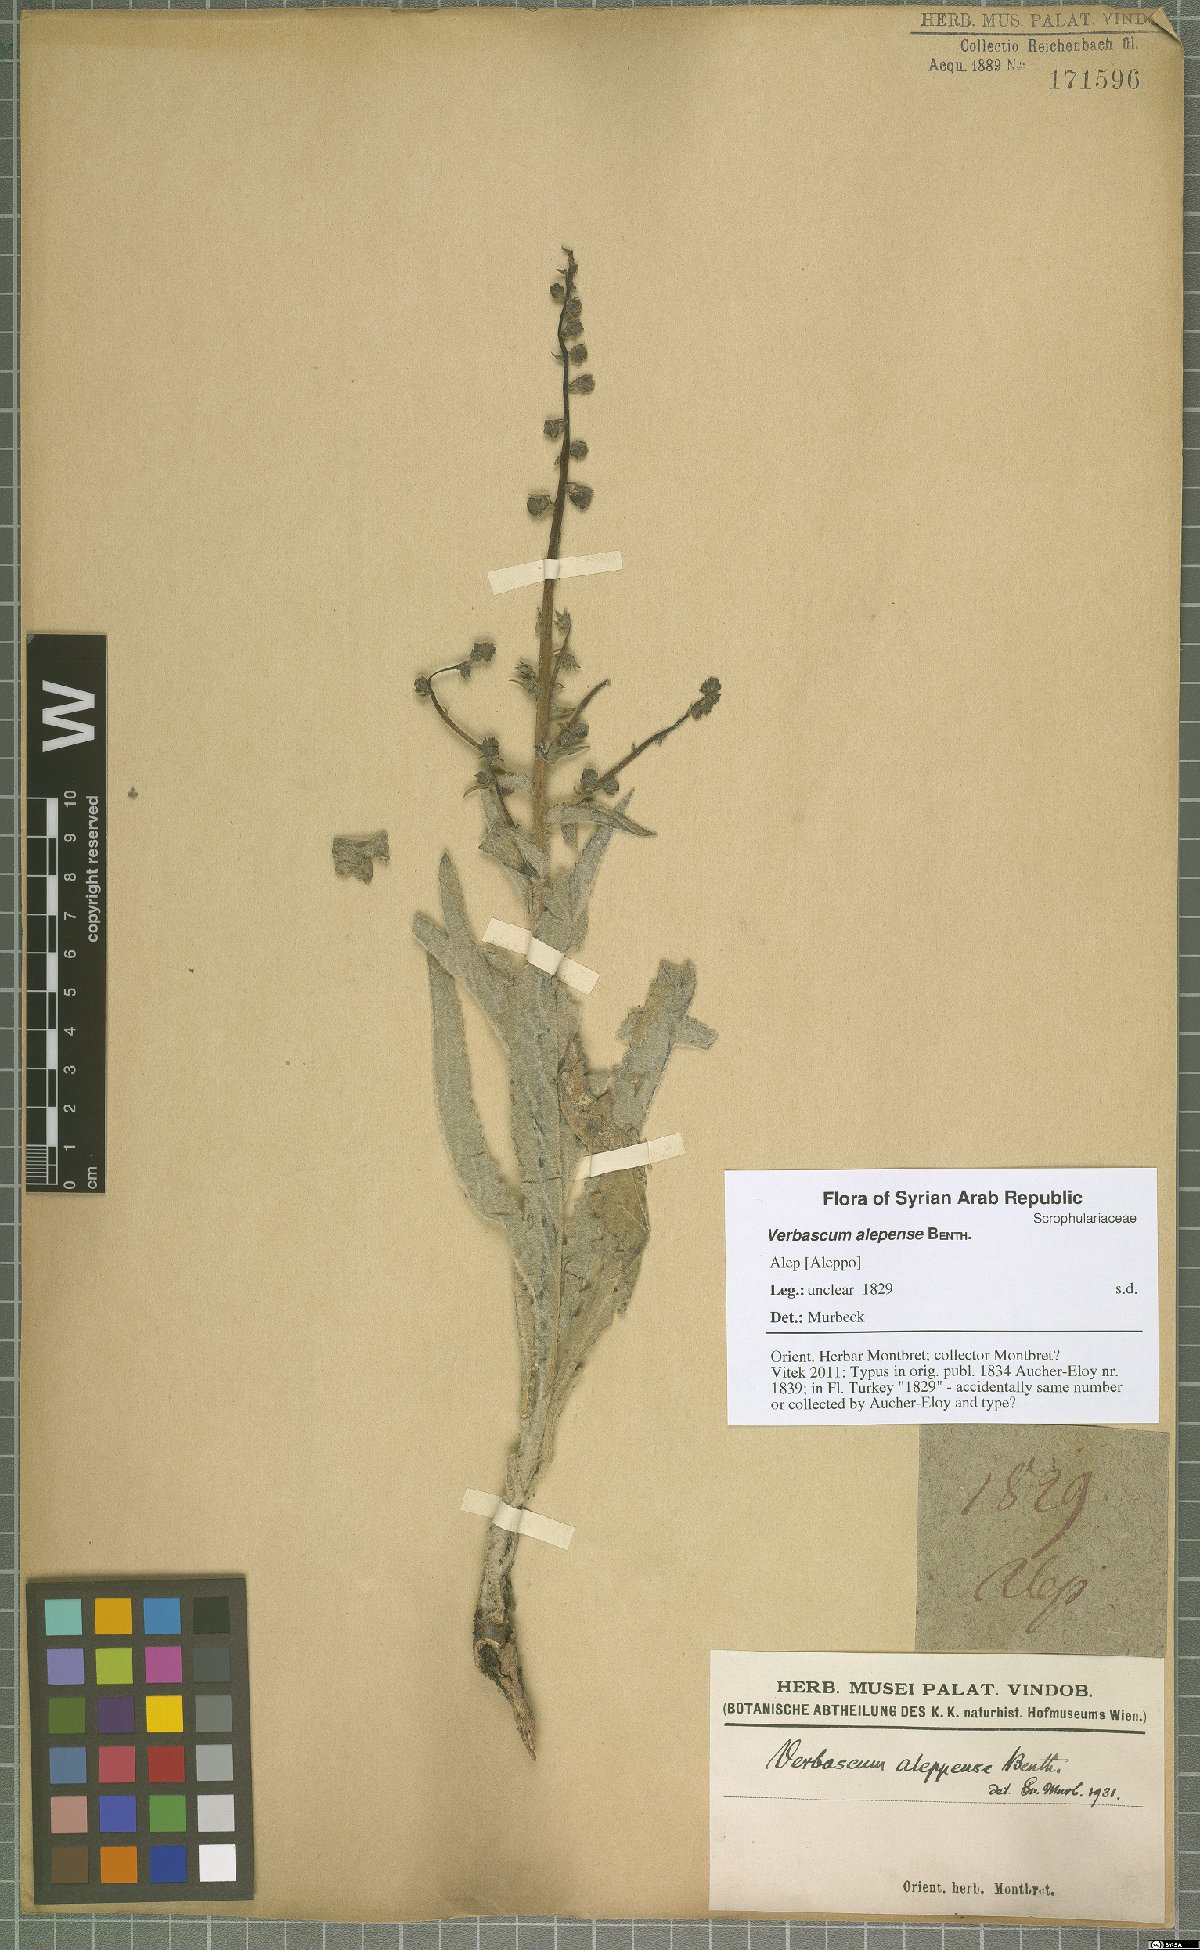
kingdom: Plantae
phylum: Tracheophyta
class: Magnoliopsida
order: Lamiales
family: Scrophulariaceae
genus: Verbascum
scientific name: Verbascum alepense
